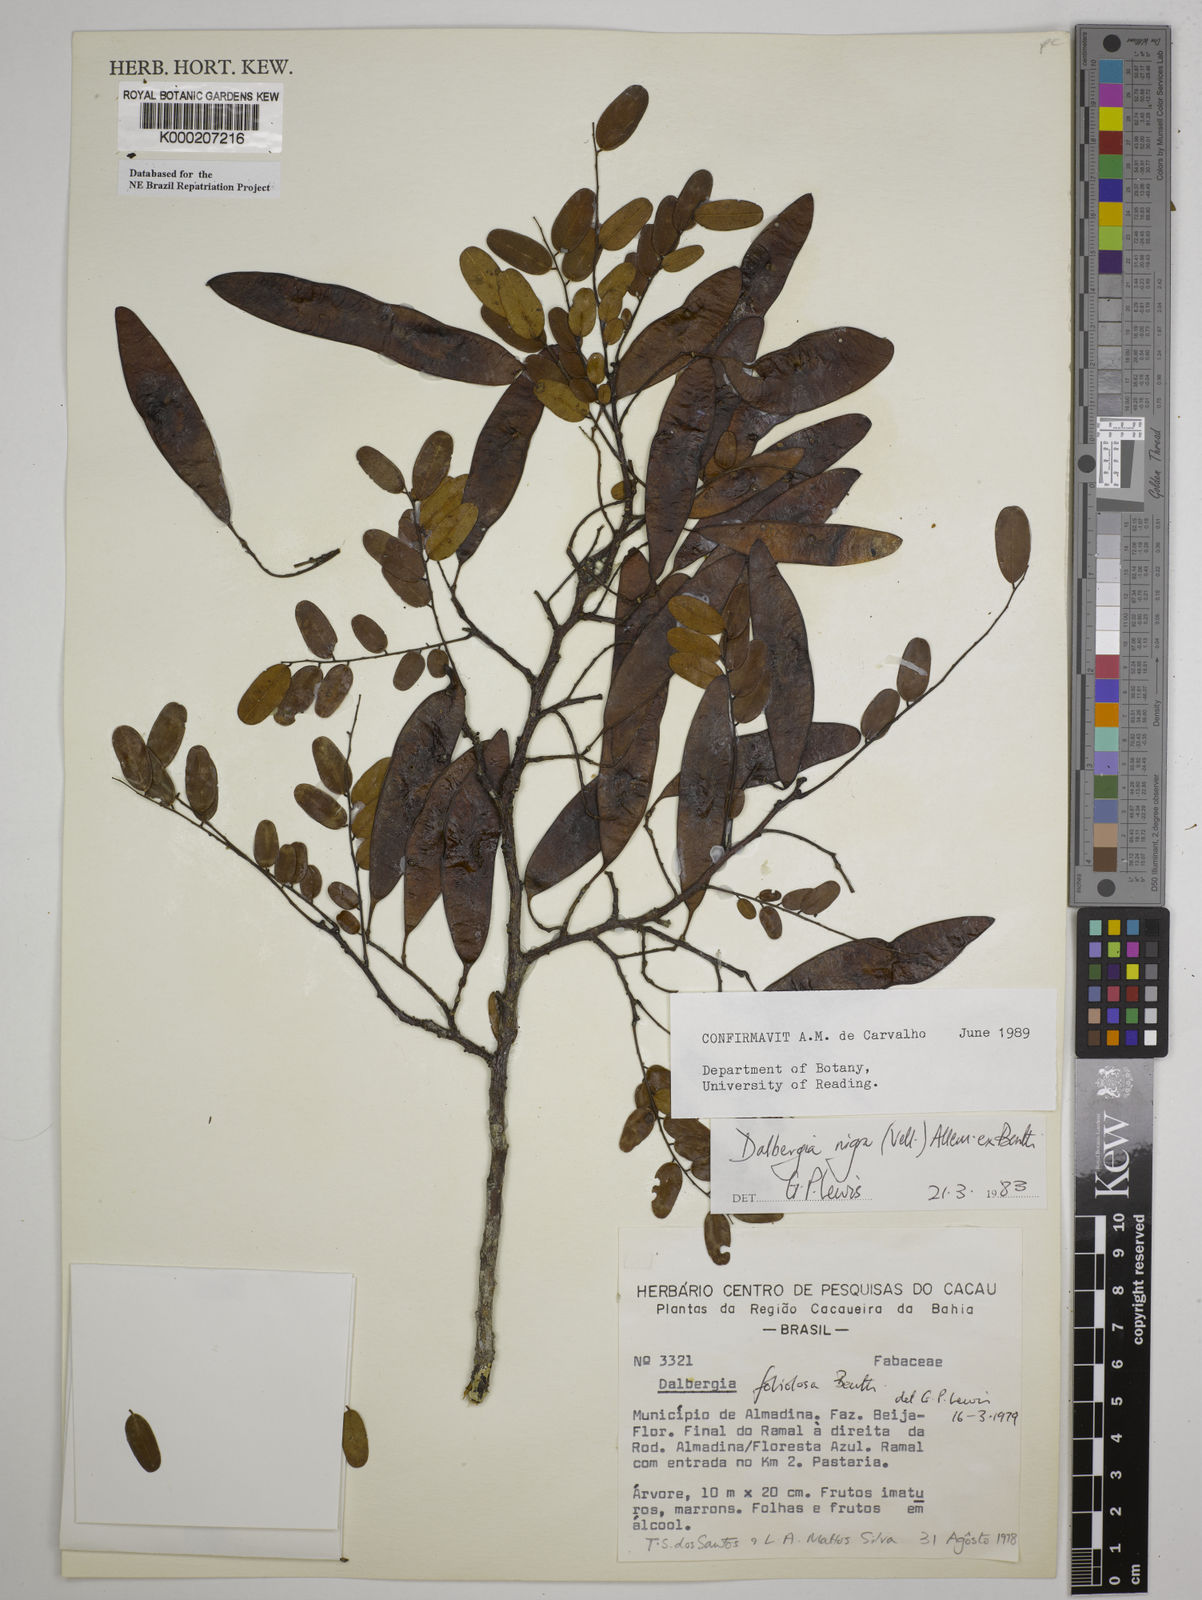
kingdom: Plantae
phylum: Tracheophyta
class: Magnoliopsida
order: Fabales
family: Fabaceae
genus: Dalbergia
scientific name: Dalbergia nigra
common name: Bahia rosewood
